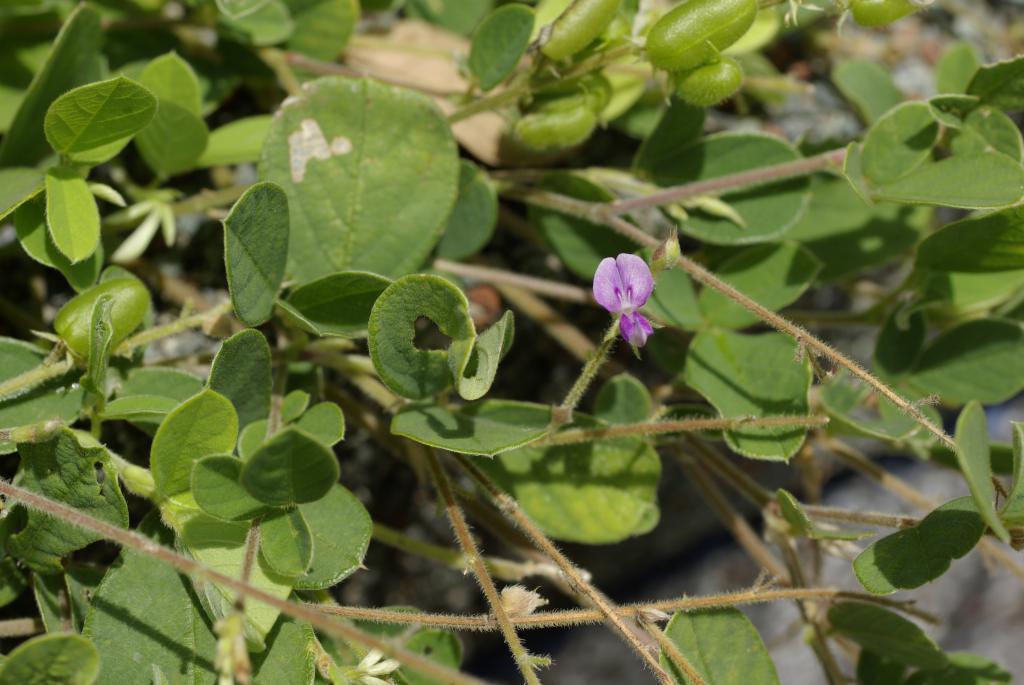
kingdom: Plantae
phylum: Tracheophyta
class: Magnoliopsida
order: Fabales
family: Fabaceae
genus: Pycnospora
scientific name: Pycnospora lutescens
